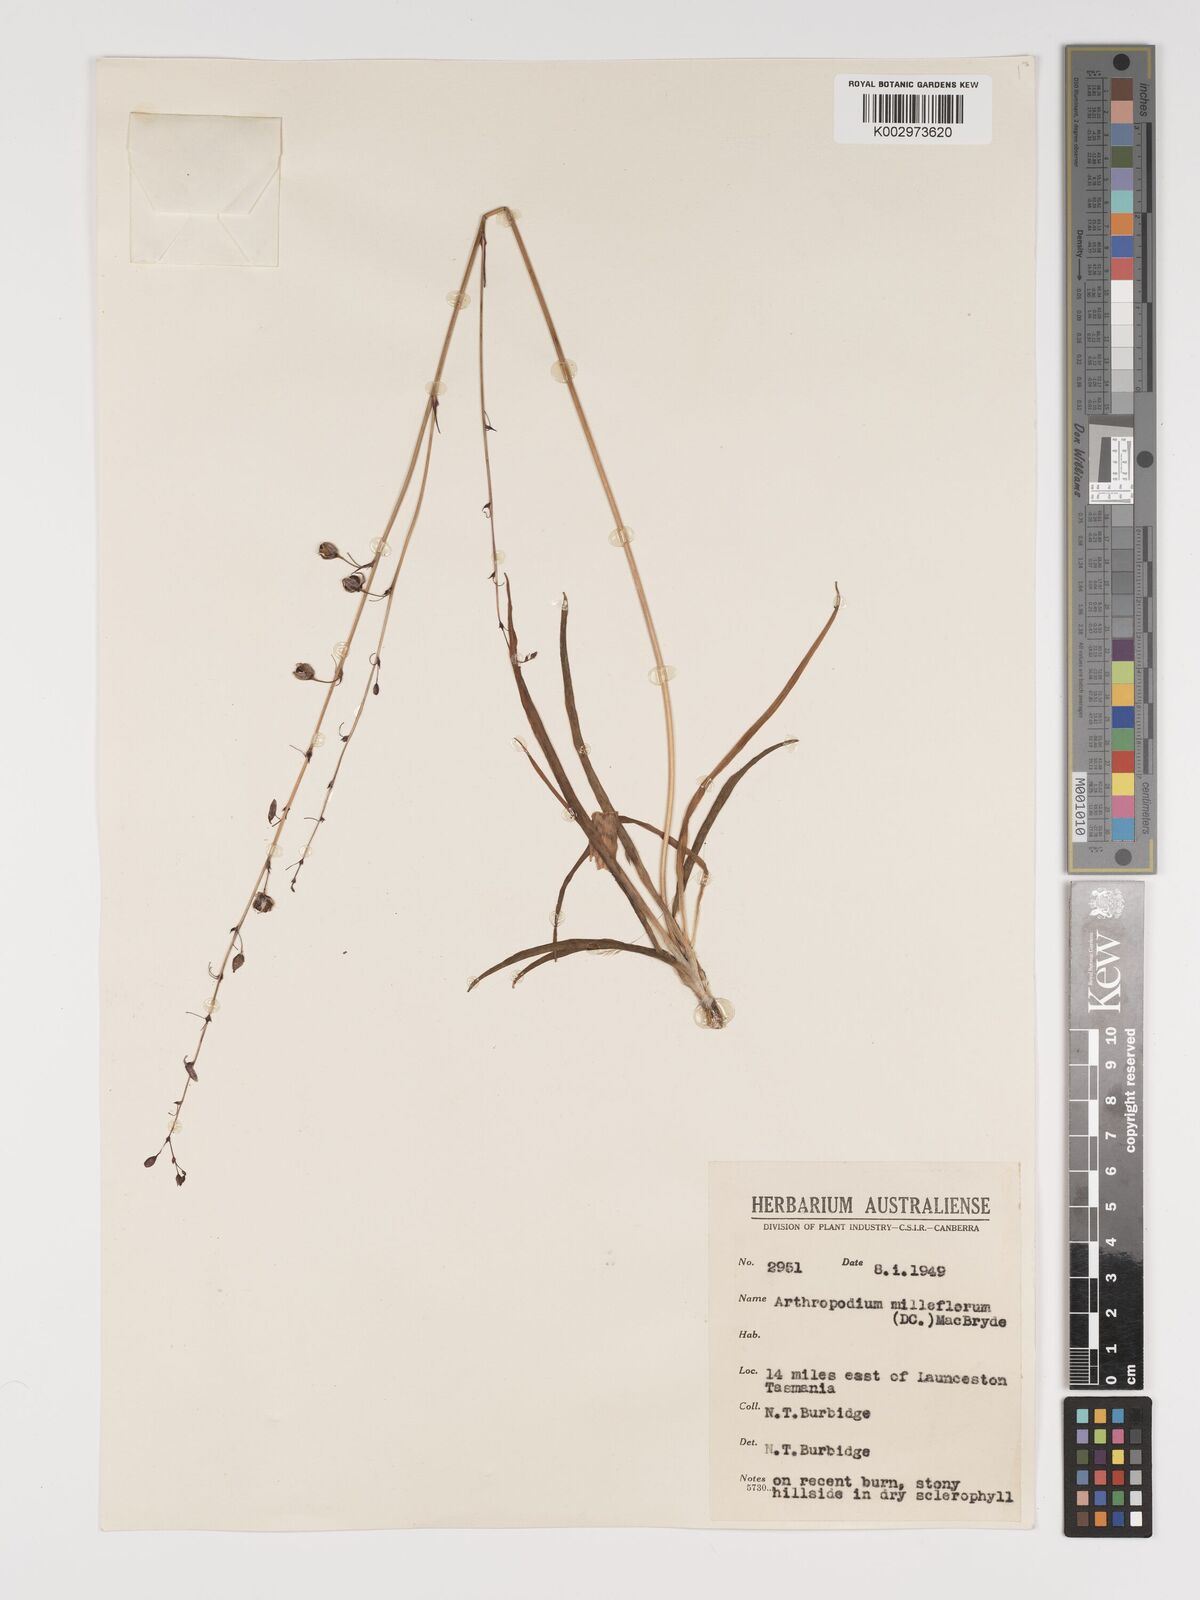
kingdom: Plantae
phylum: Tracheophyta
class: Liliopsida
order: Asparagales
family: Asparagaceae
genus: Arthropodium
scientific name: Arthropodium milleflorum
